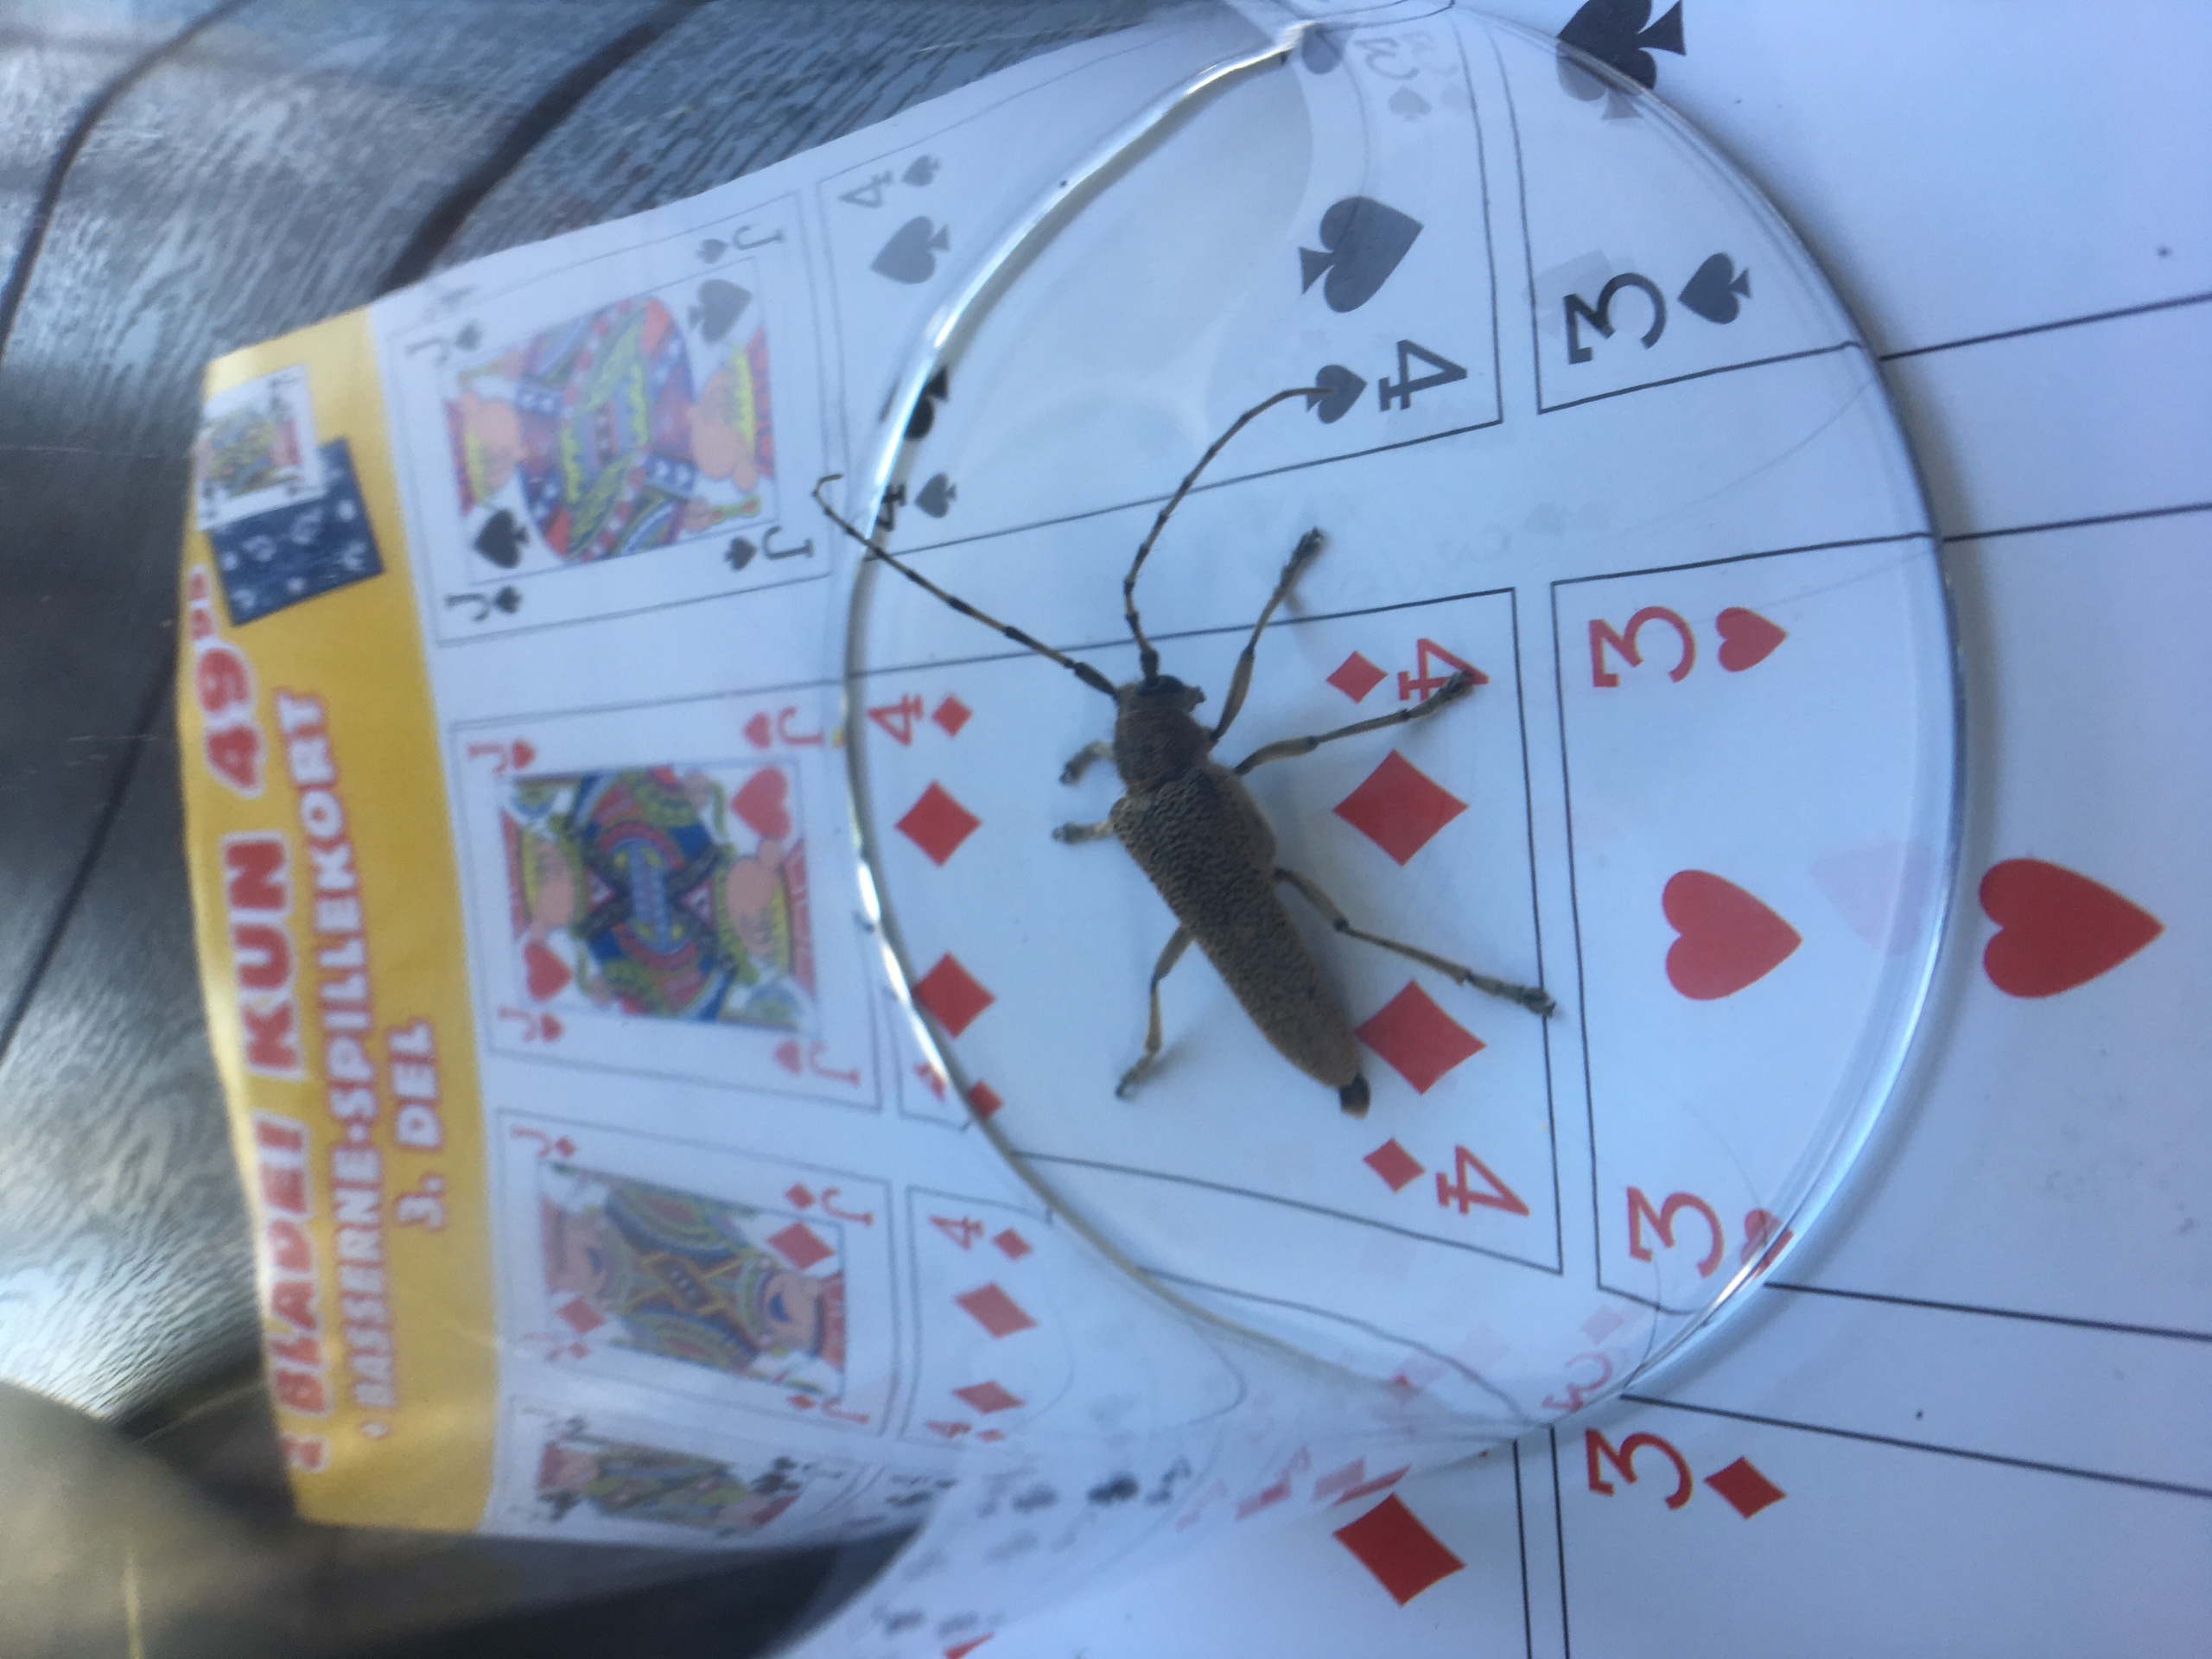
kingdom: Animalia
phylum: Arthropoda
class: Insecta
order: Coleoptera
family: Cerambycidae
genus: Saperda
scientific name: Saperda carcharias
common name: Poppelbuk
